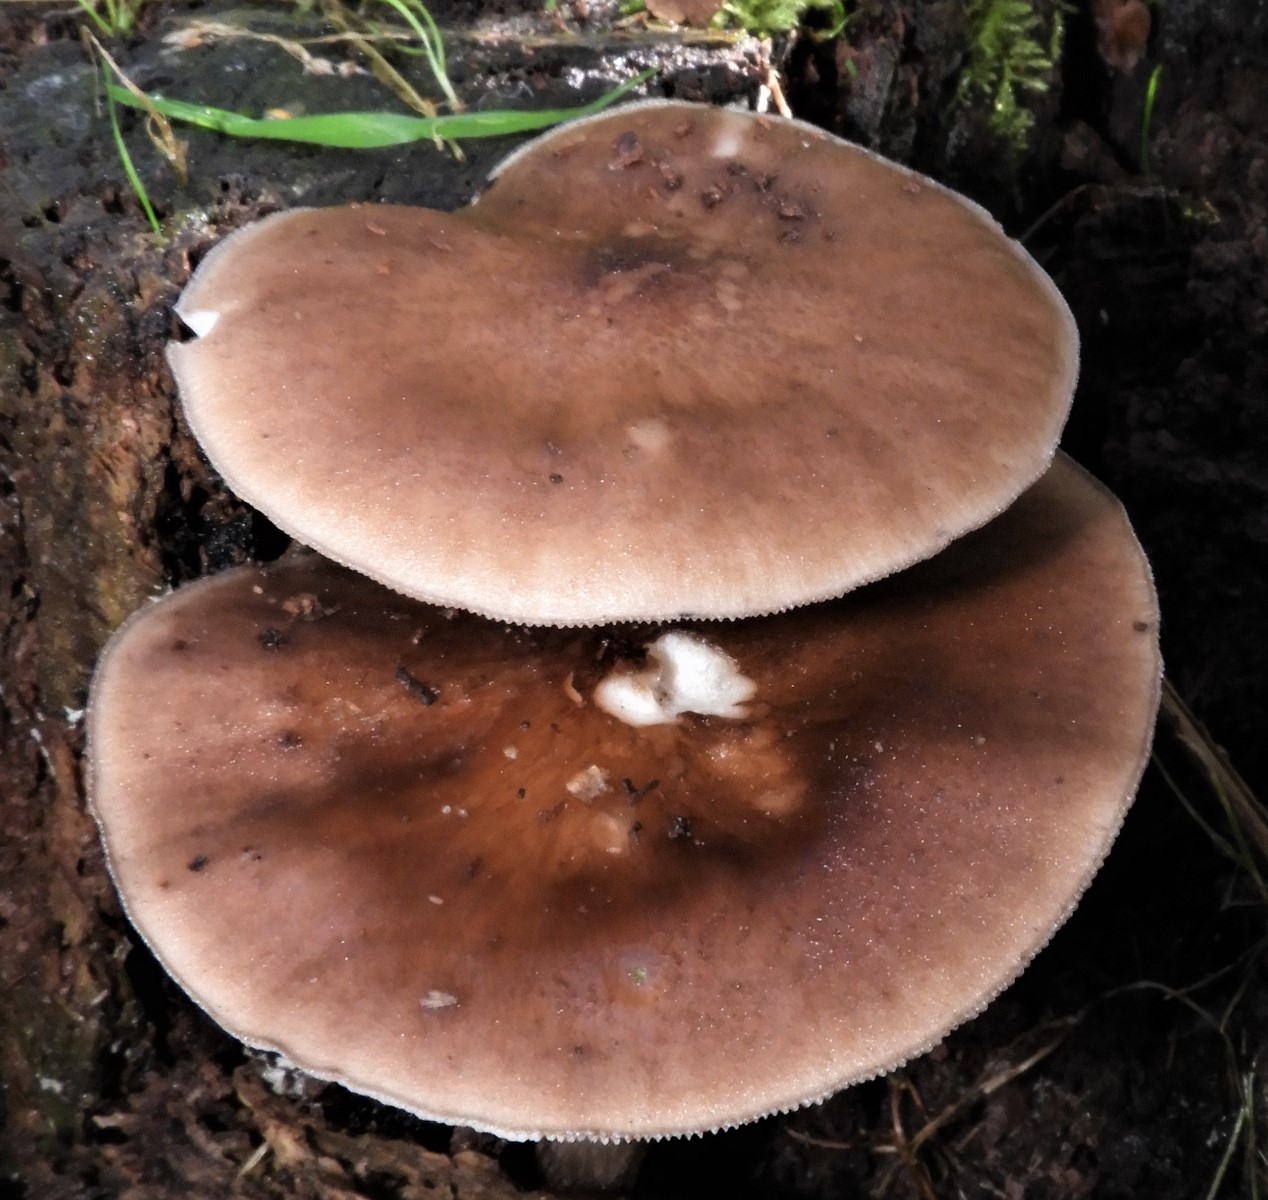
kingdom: Fungi
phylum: Basidiomycota
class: Agaricomycetes
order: Agaricales
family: Pluteaceae
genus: Pluteus
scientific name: Pluteus cervinus
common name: sodfarvet skærmhat
